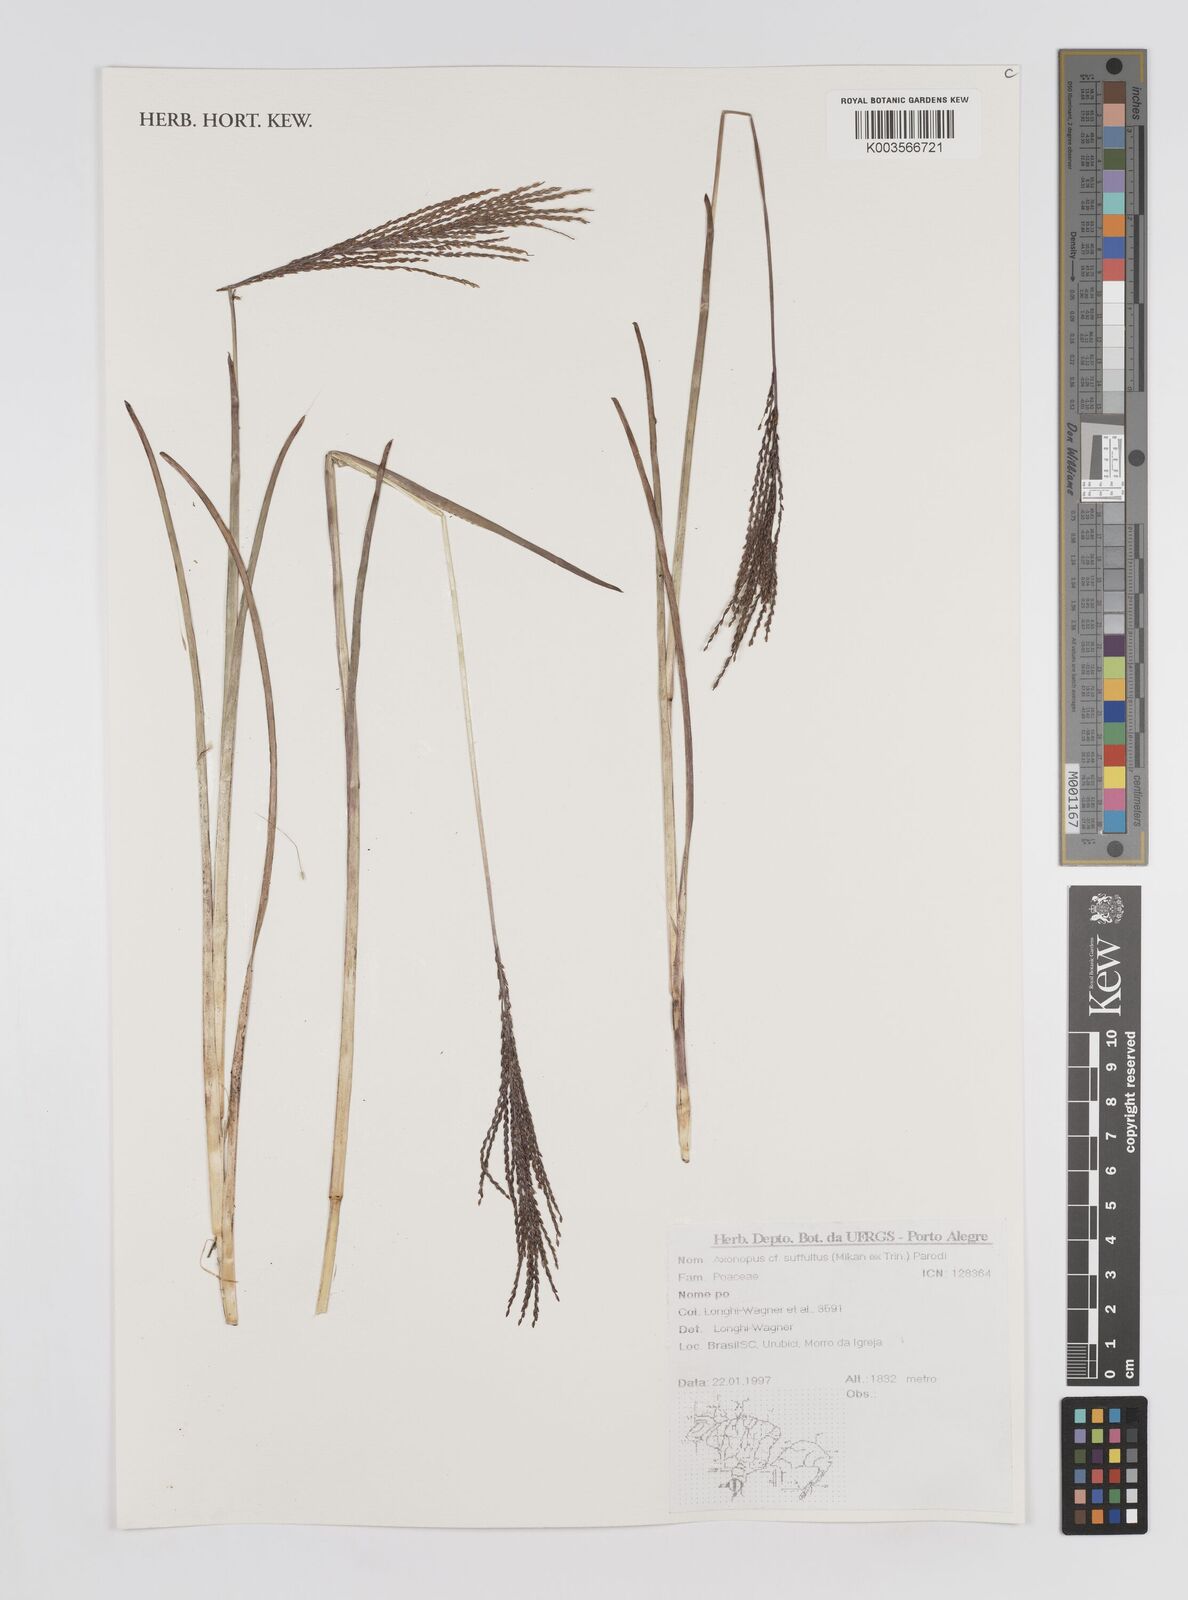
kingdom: Plantae
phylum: Tracheophyta
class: Liliopsida
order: Poales
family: Poaceae
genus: Axonopus
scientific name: Axonopus suffultus
